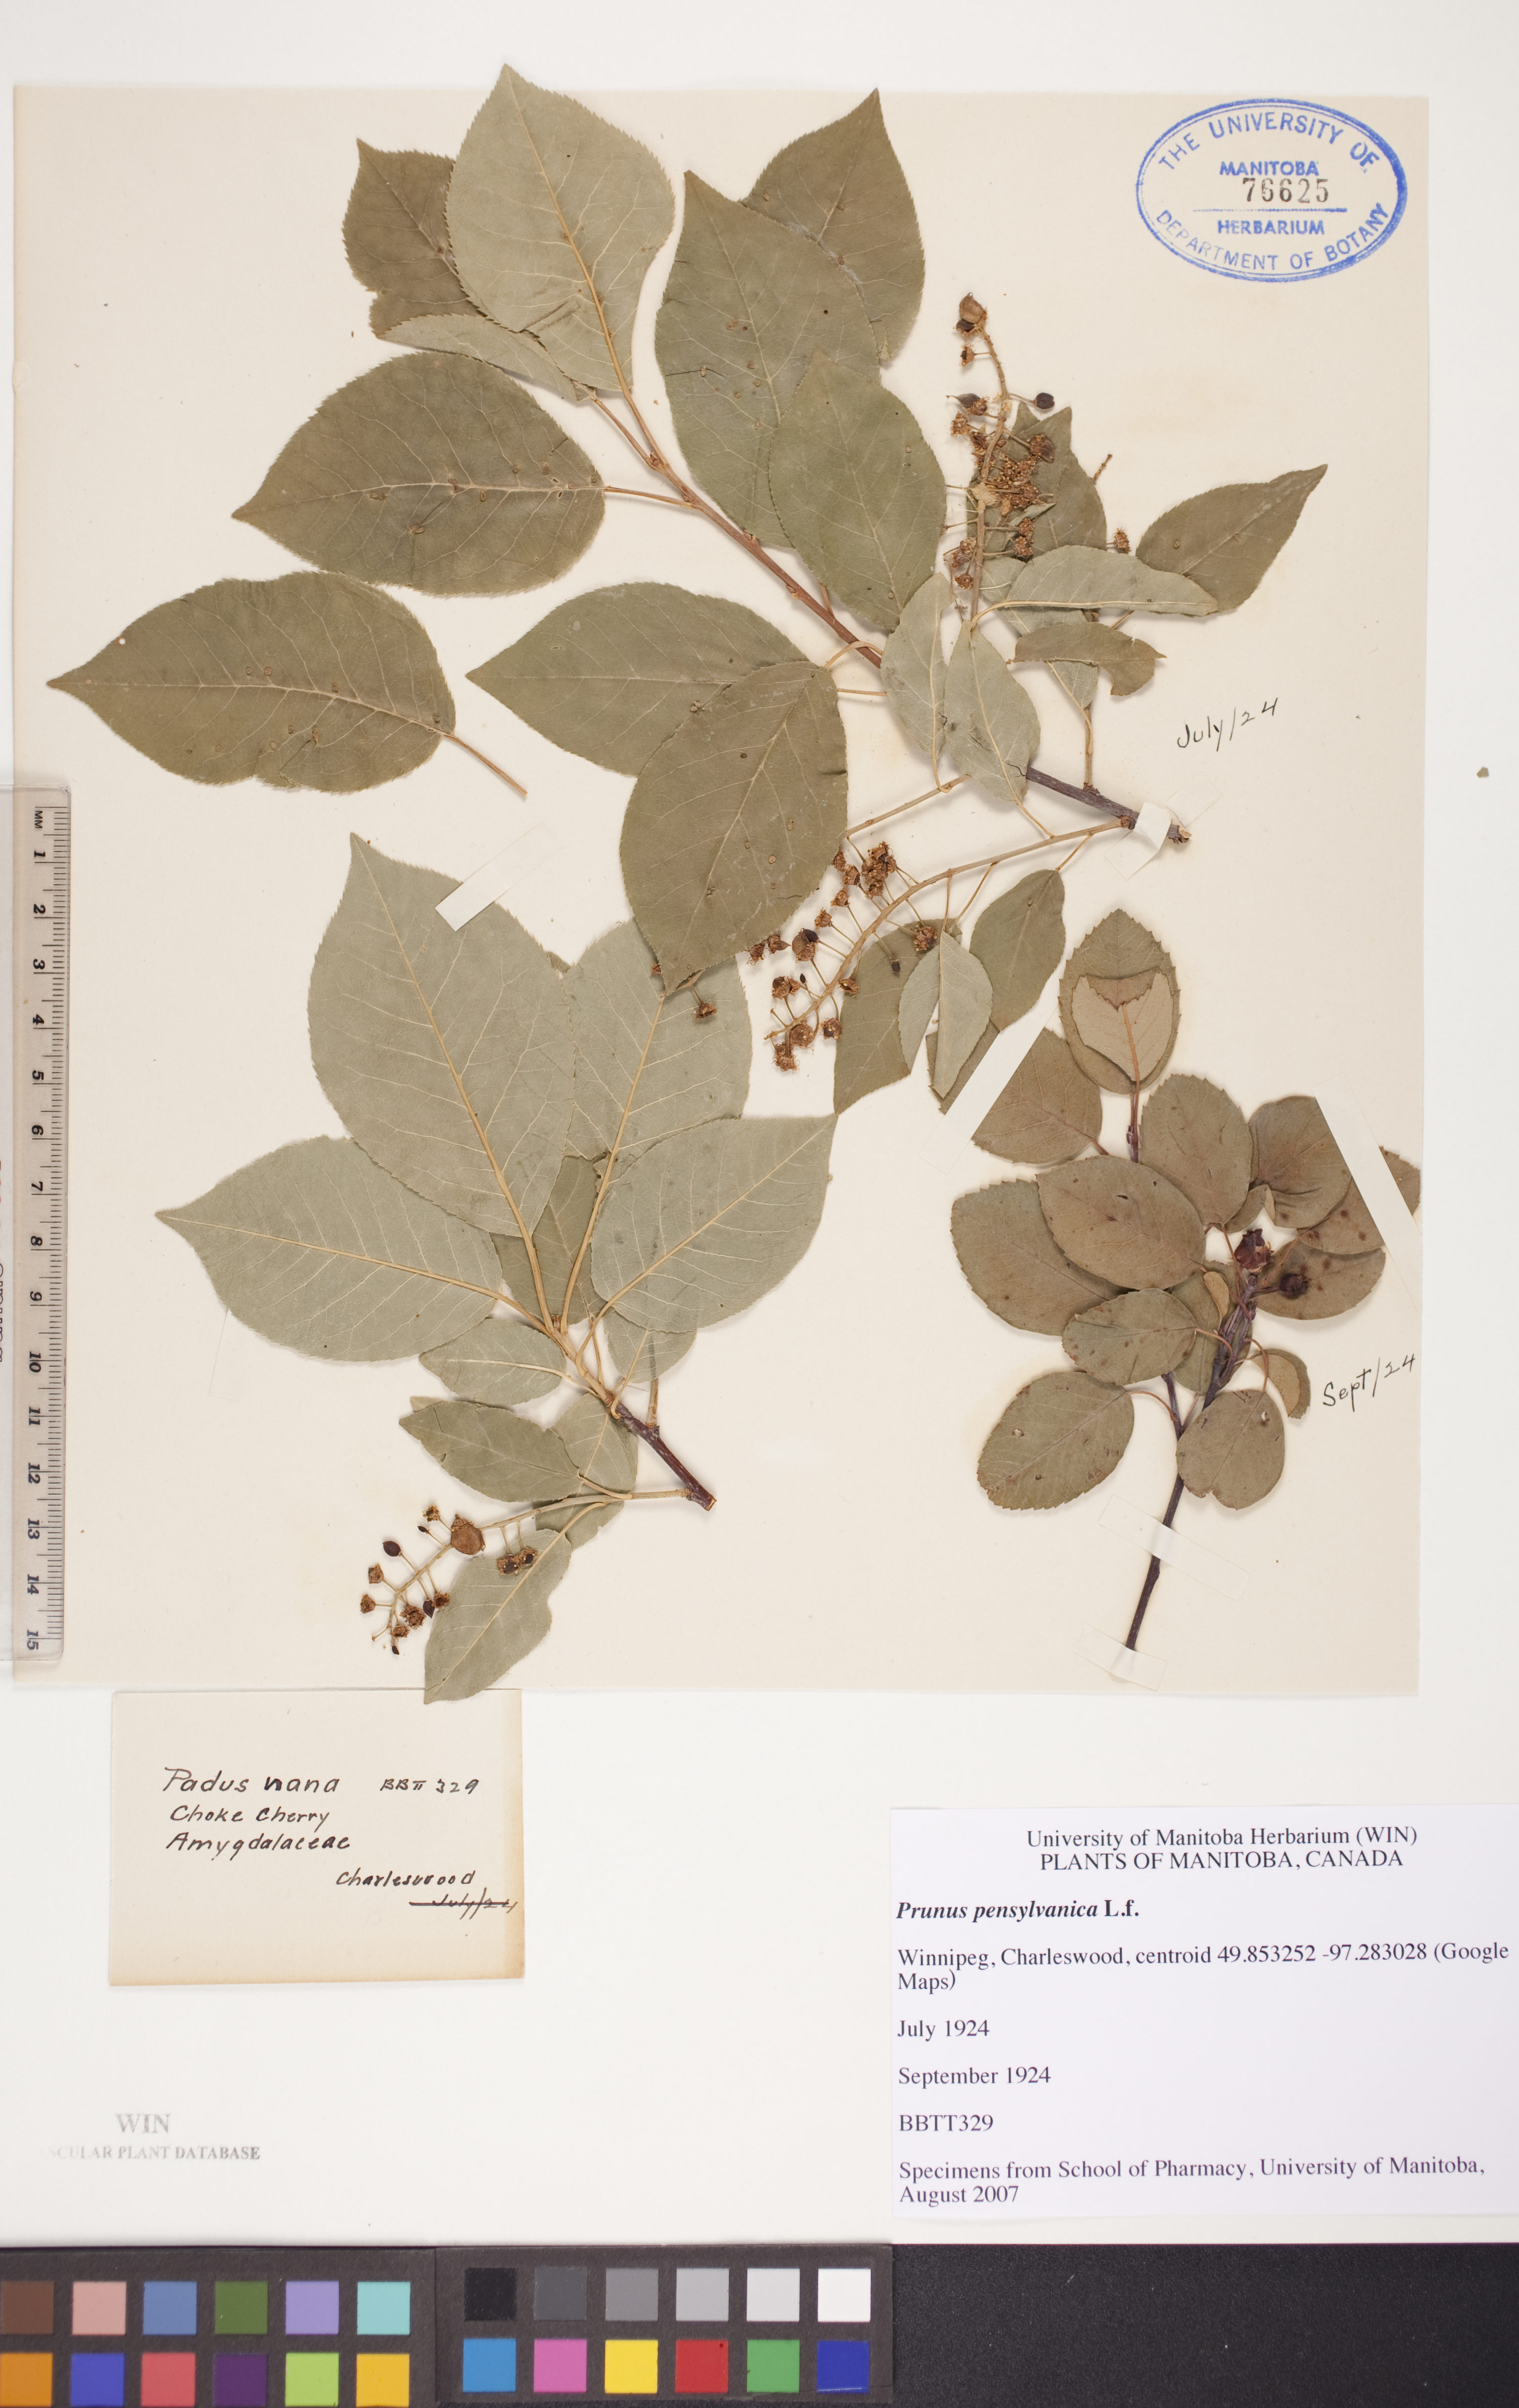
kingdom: Plantae
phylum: Tracheophyta
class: Magnoliopsida
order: Rosales
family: Rosaceae
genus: Amelanchier
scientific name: Amelanchier alnifolia
